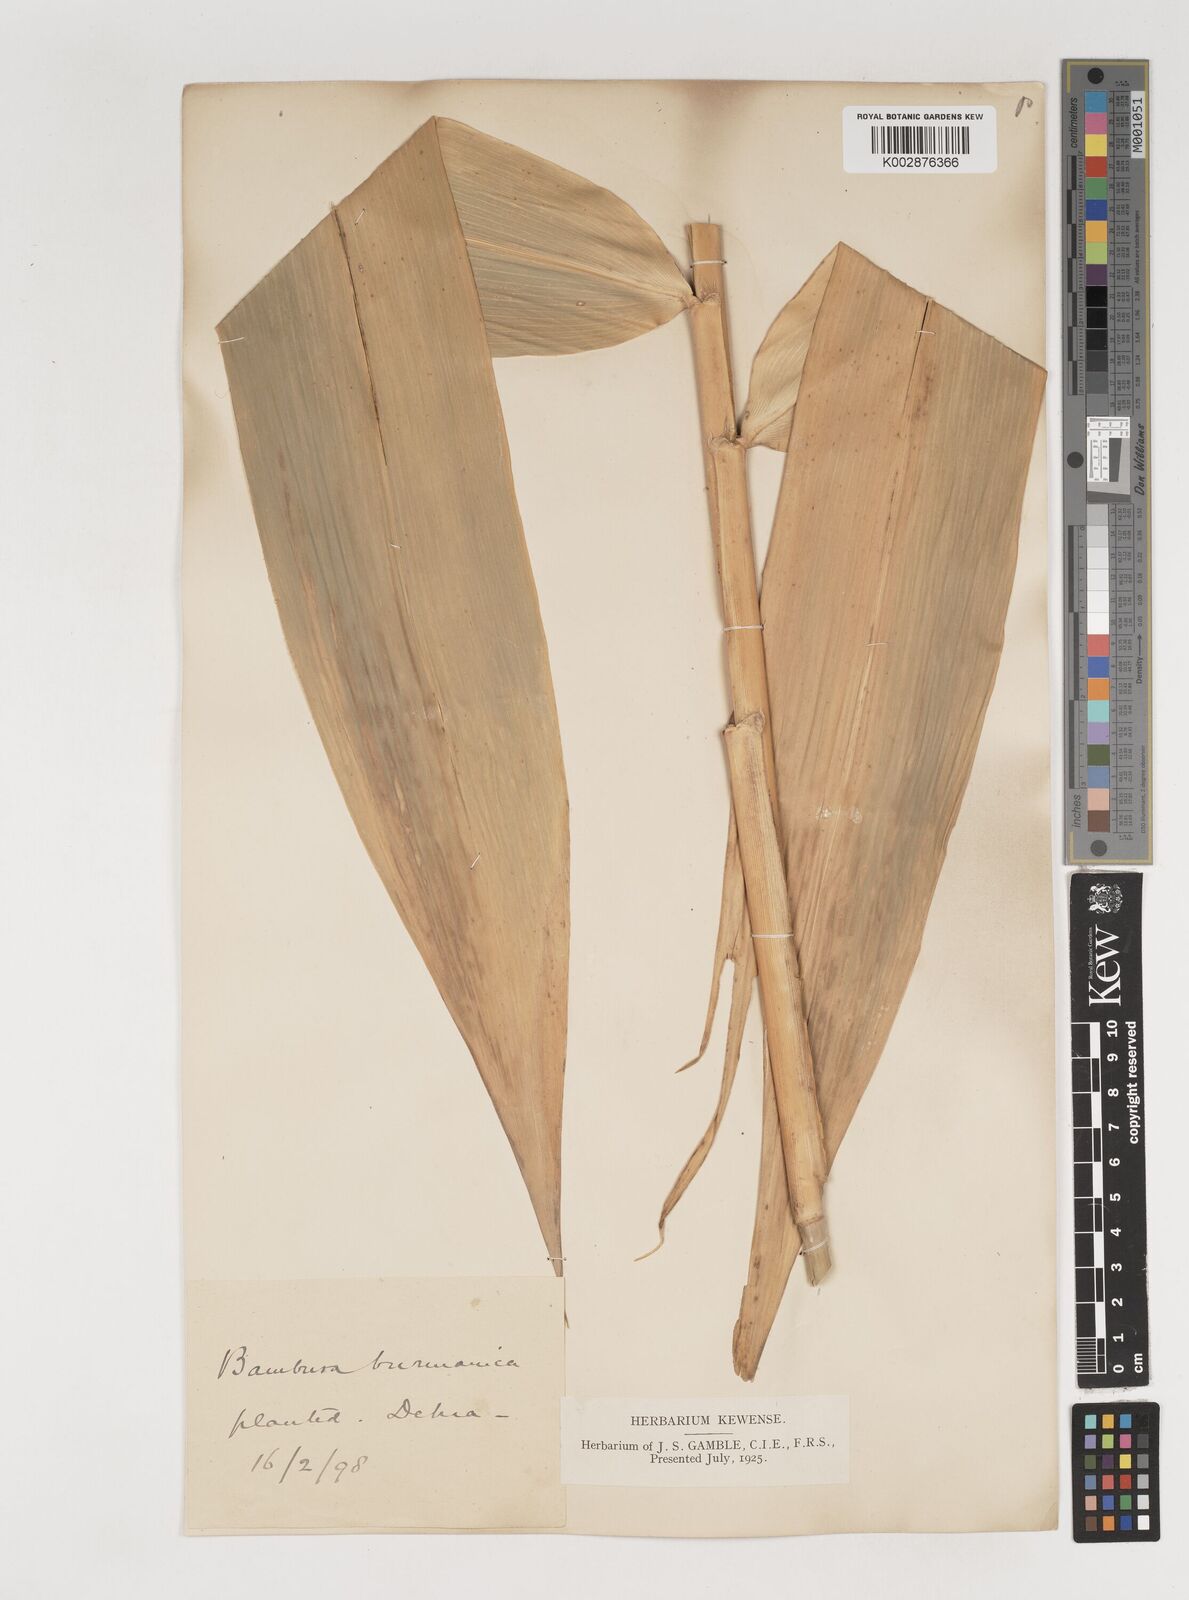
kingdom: Plantae
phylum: Tracheophyta
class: Liliopsida
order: Poales
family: Poaceae
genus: Bambusa
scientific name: Bambusa burmanica
